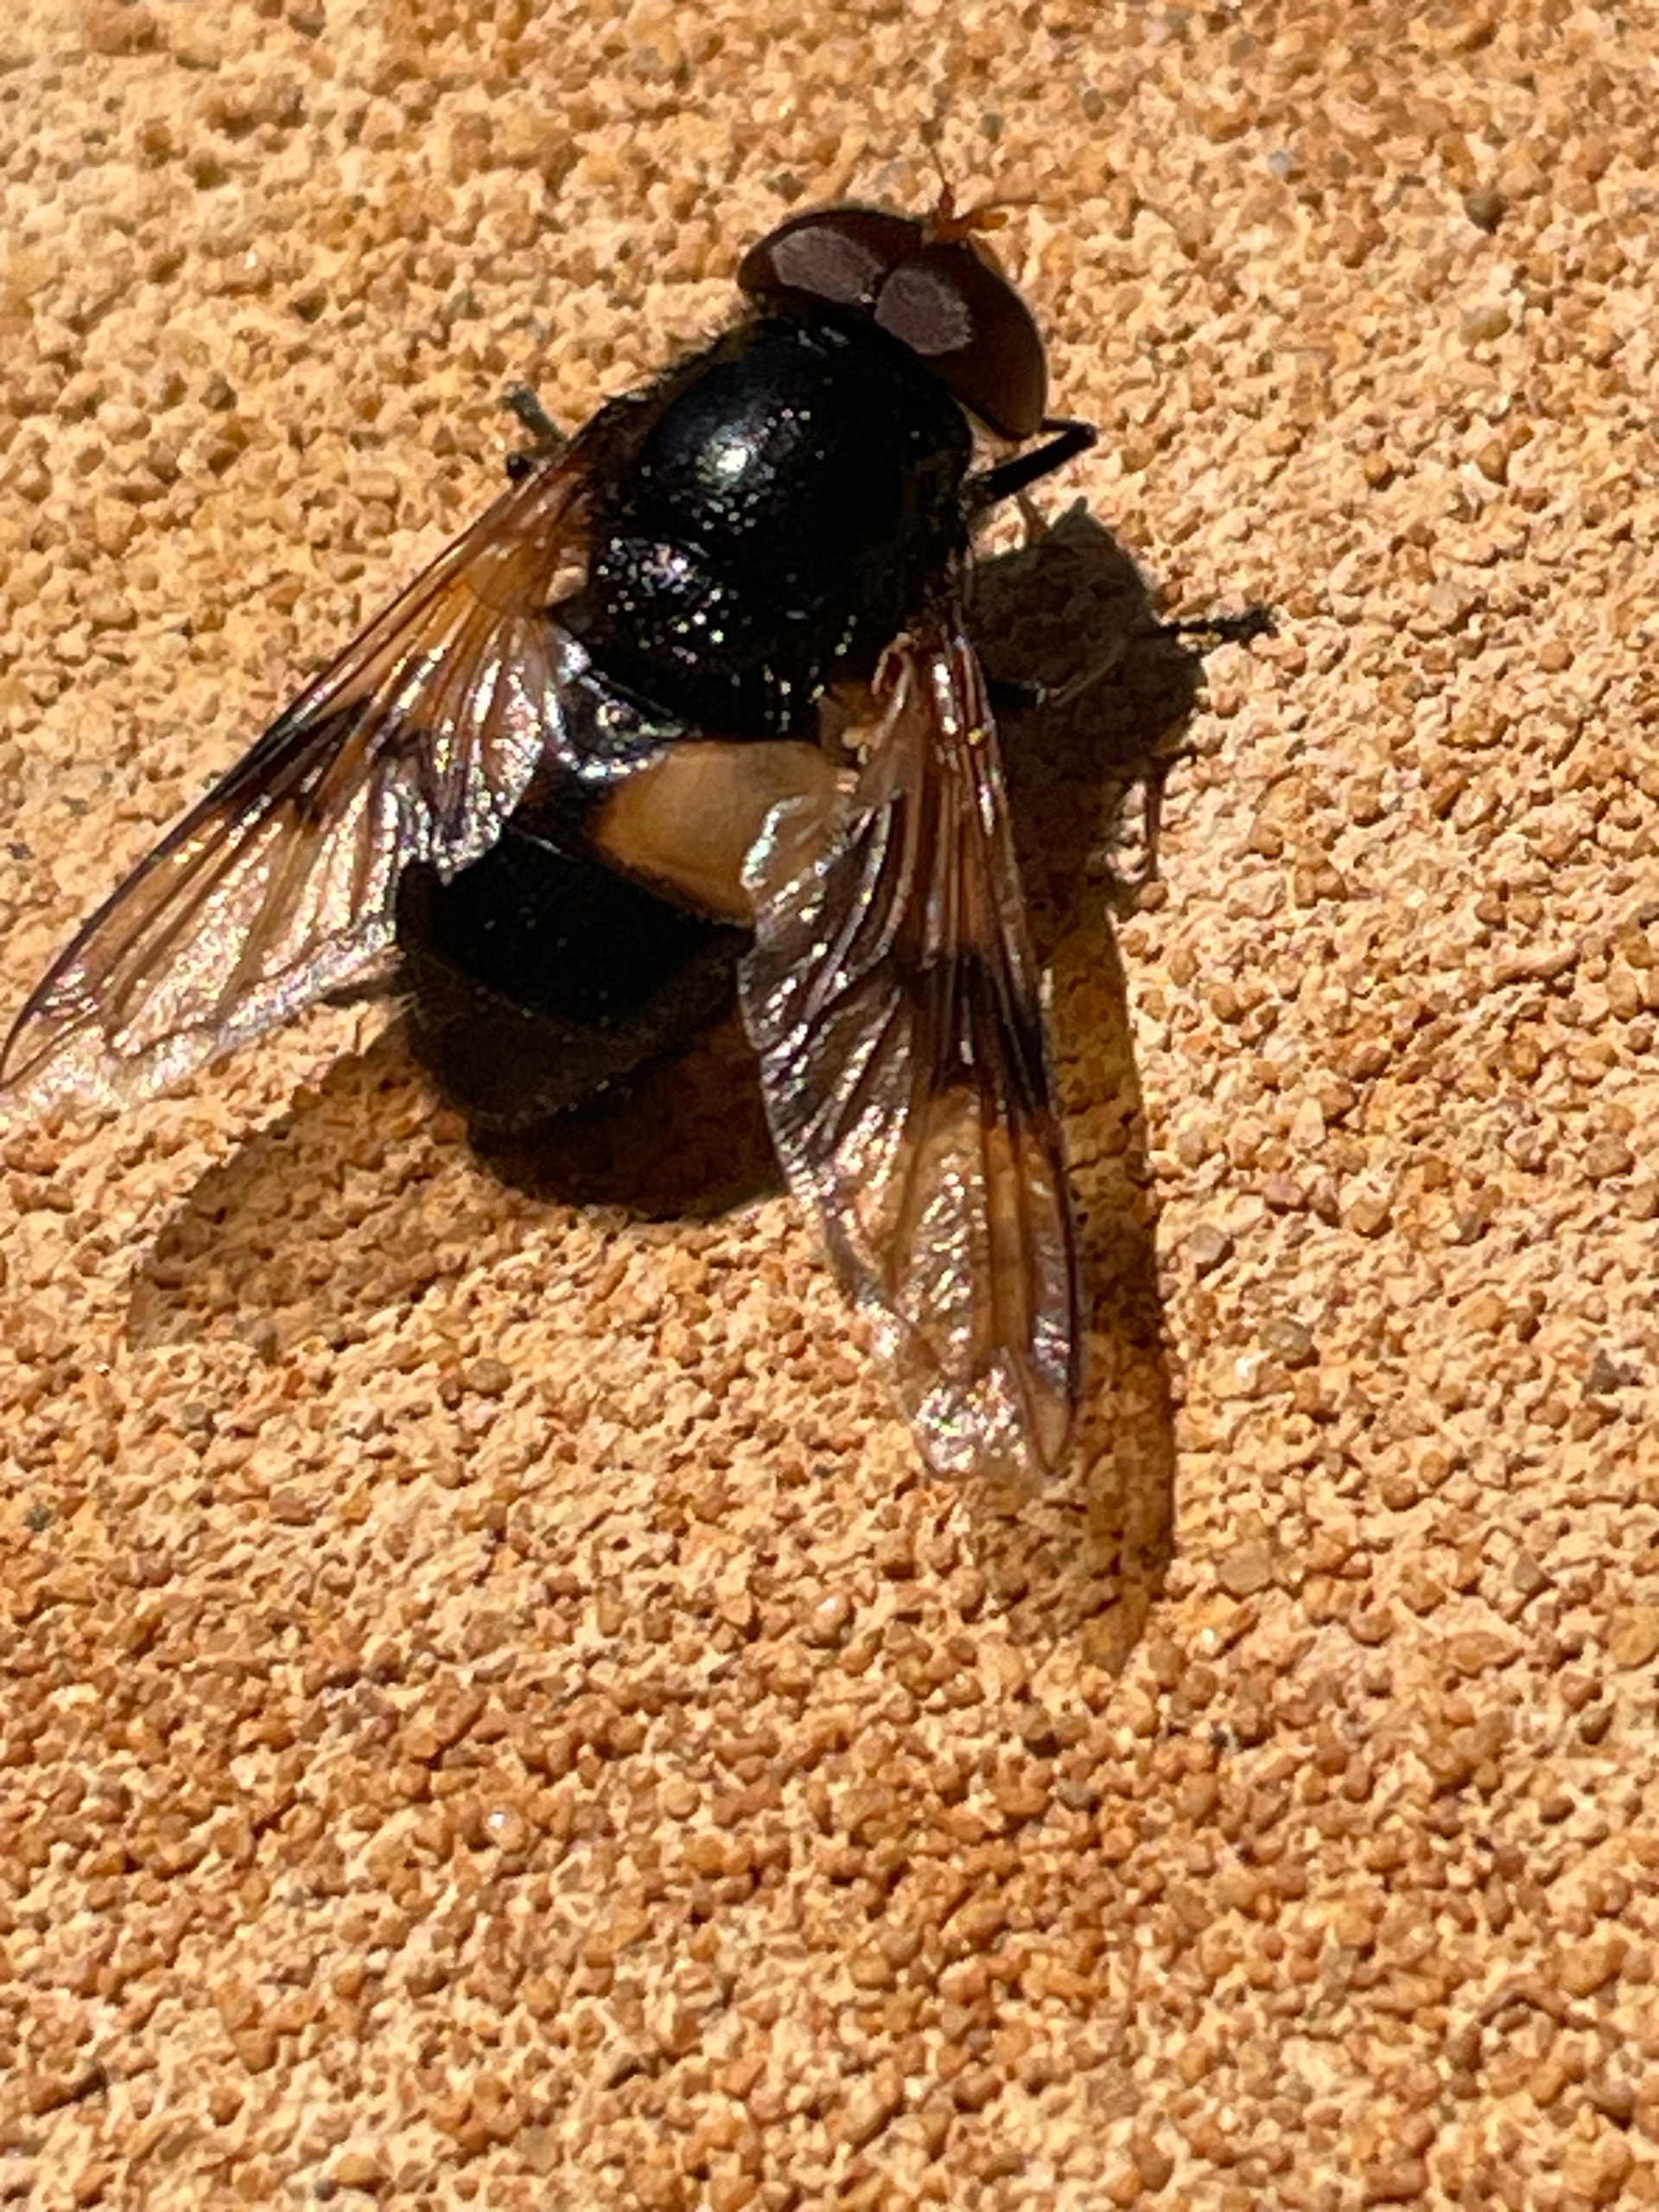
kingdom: Animalia
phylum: Arthropoda
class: Insecta
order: Diptera
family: Syrphidae
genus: Volucella
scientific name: Volucella pellucens
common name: Hvidbåndet humlesvirreflue
